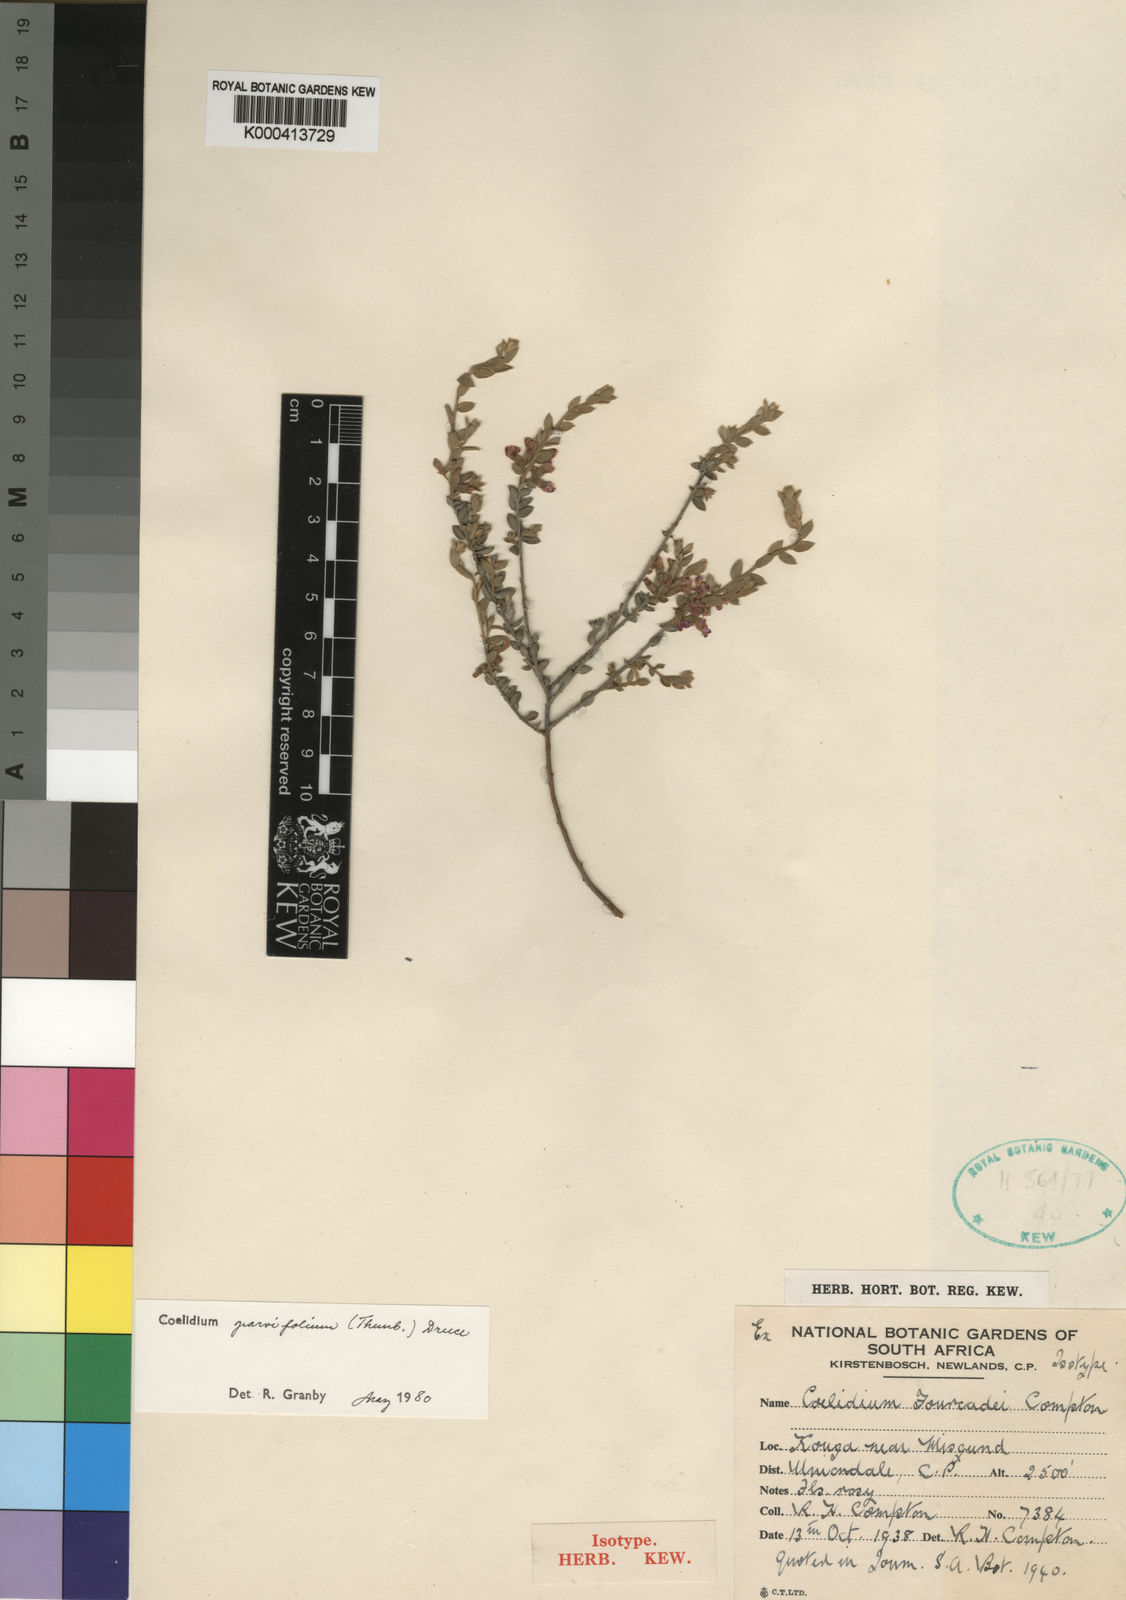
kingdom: Plantae
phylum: Tracheophyta
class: Magnoliopsida
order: Fabales
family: Fabaceae
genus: Amphithalea
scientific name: Amphithalea Coelidium fourcadei
